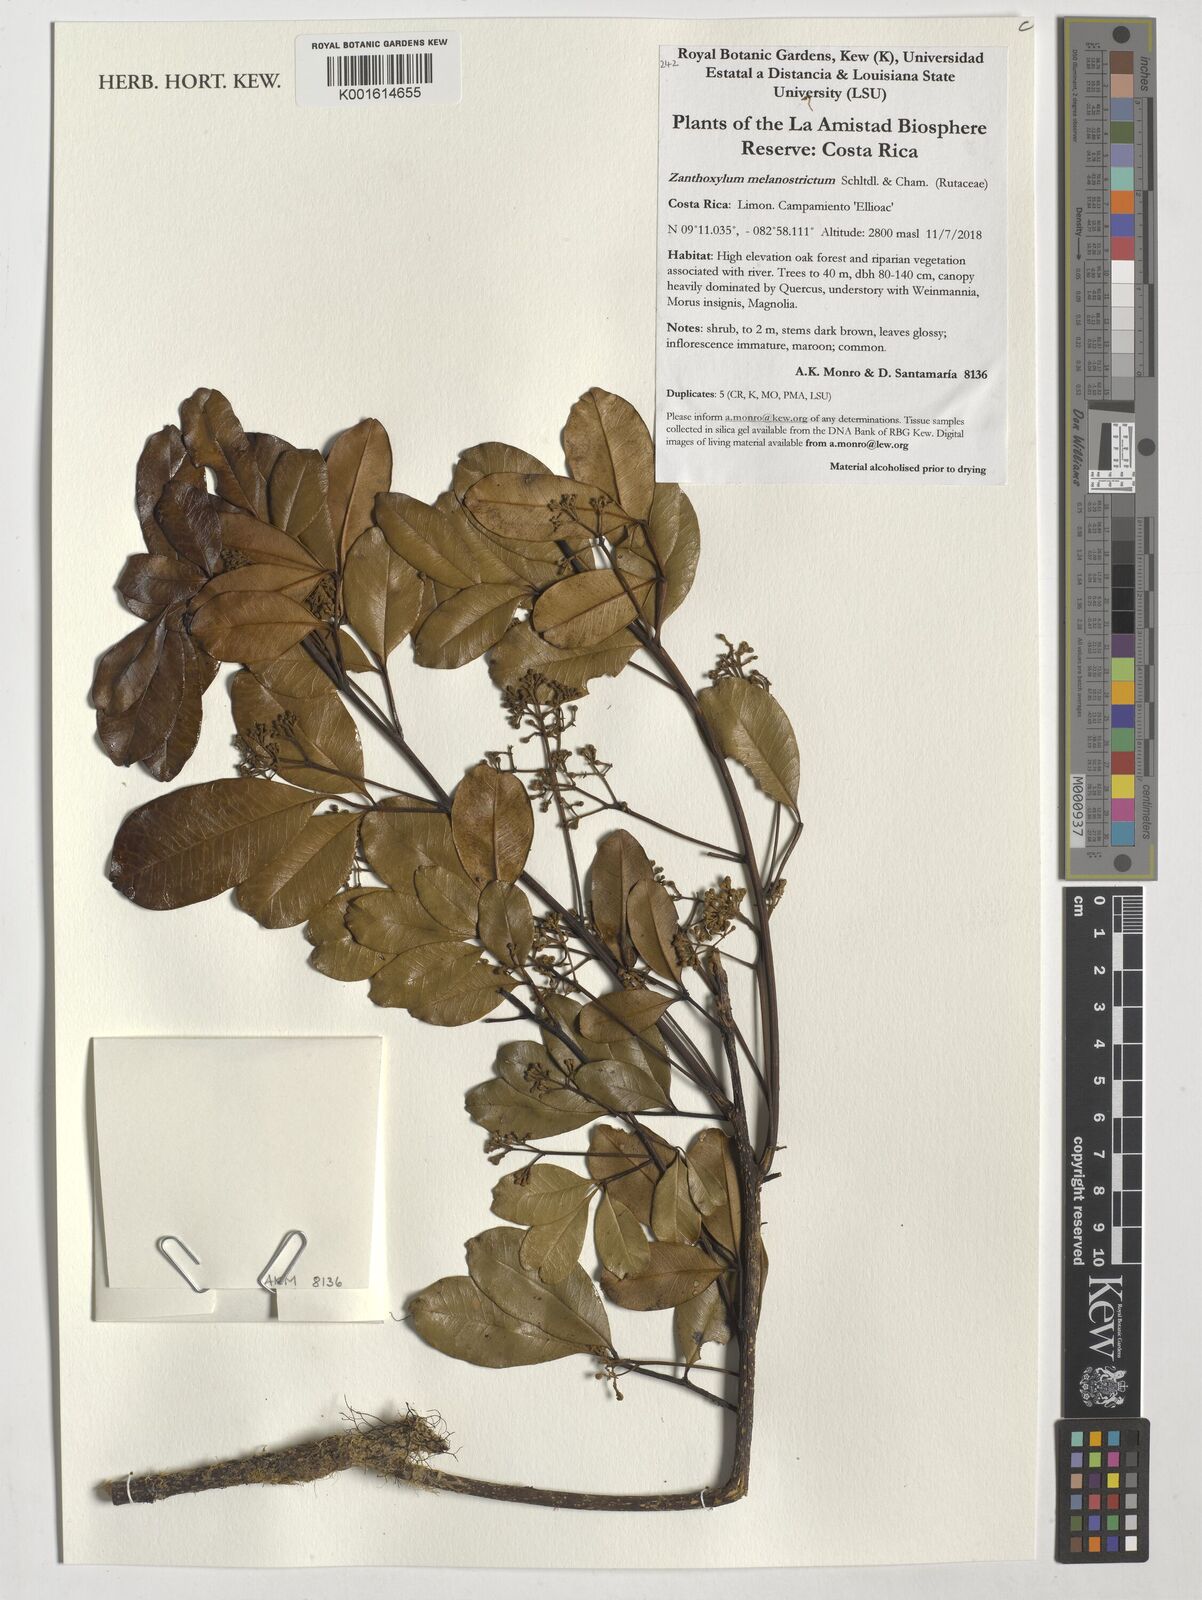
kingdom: Plantae
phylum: Tracheophyta
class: Magnoliopsida
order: Sapindales
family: Rutaceae
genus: Zanthoxylum
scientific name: Zanthoxylum melanostictum
